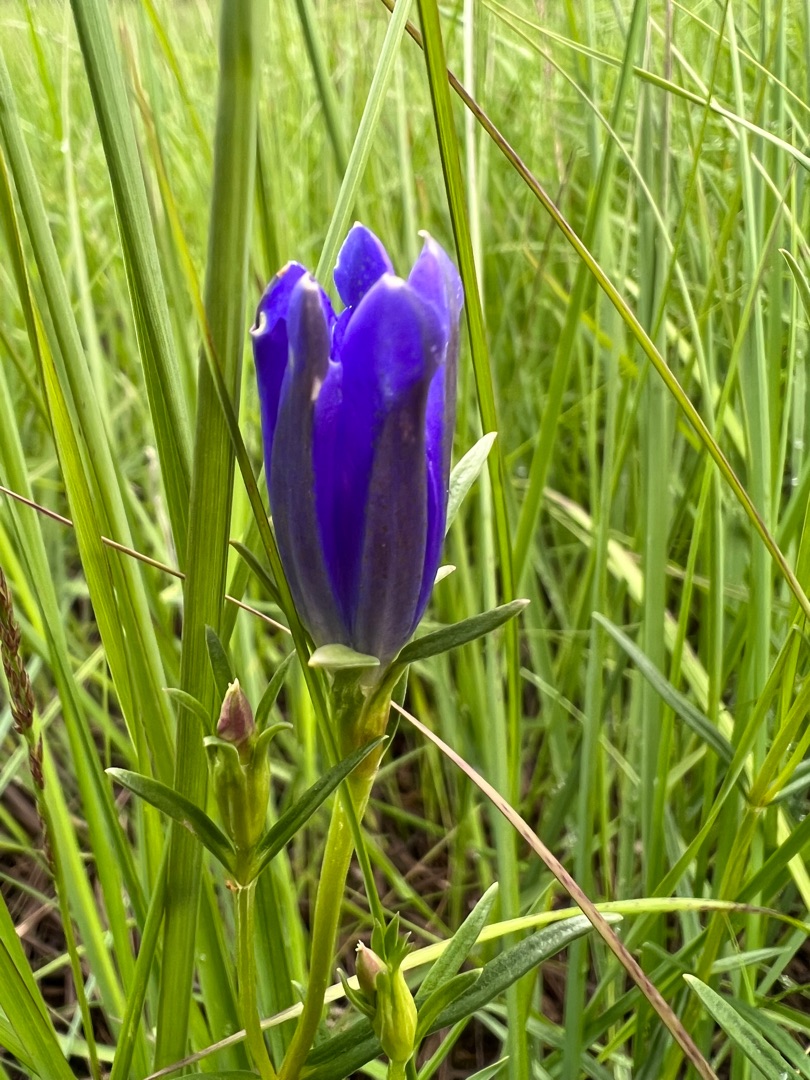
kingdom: Plantae
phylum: Tracheophyta
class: Magnoliopsida
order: Gentianales
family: Gentianaceae
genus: Gentiana
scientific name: Gentiana pneumonanthe
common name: Klokke-ensian
